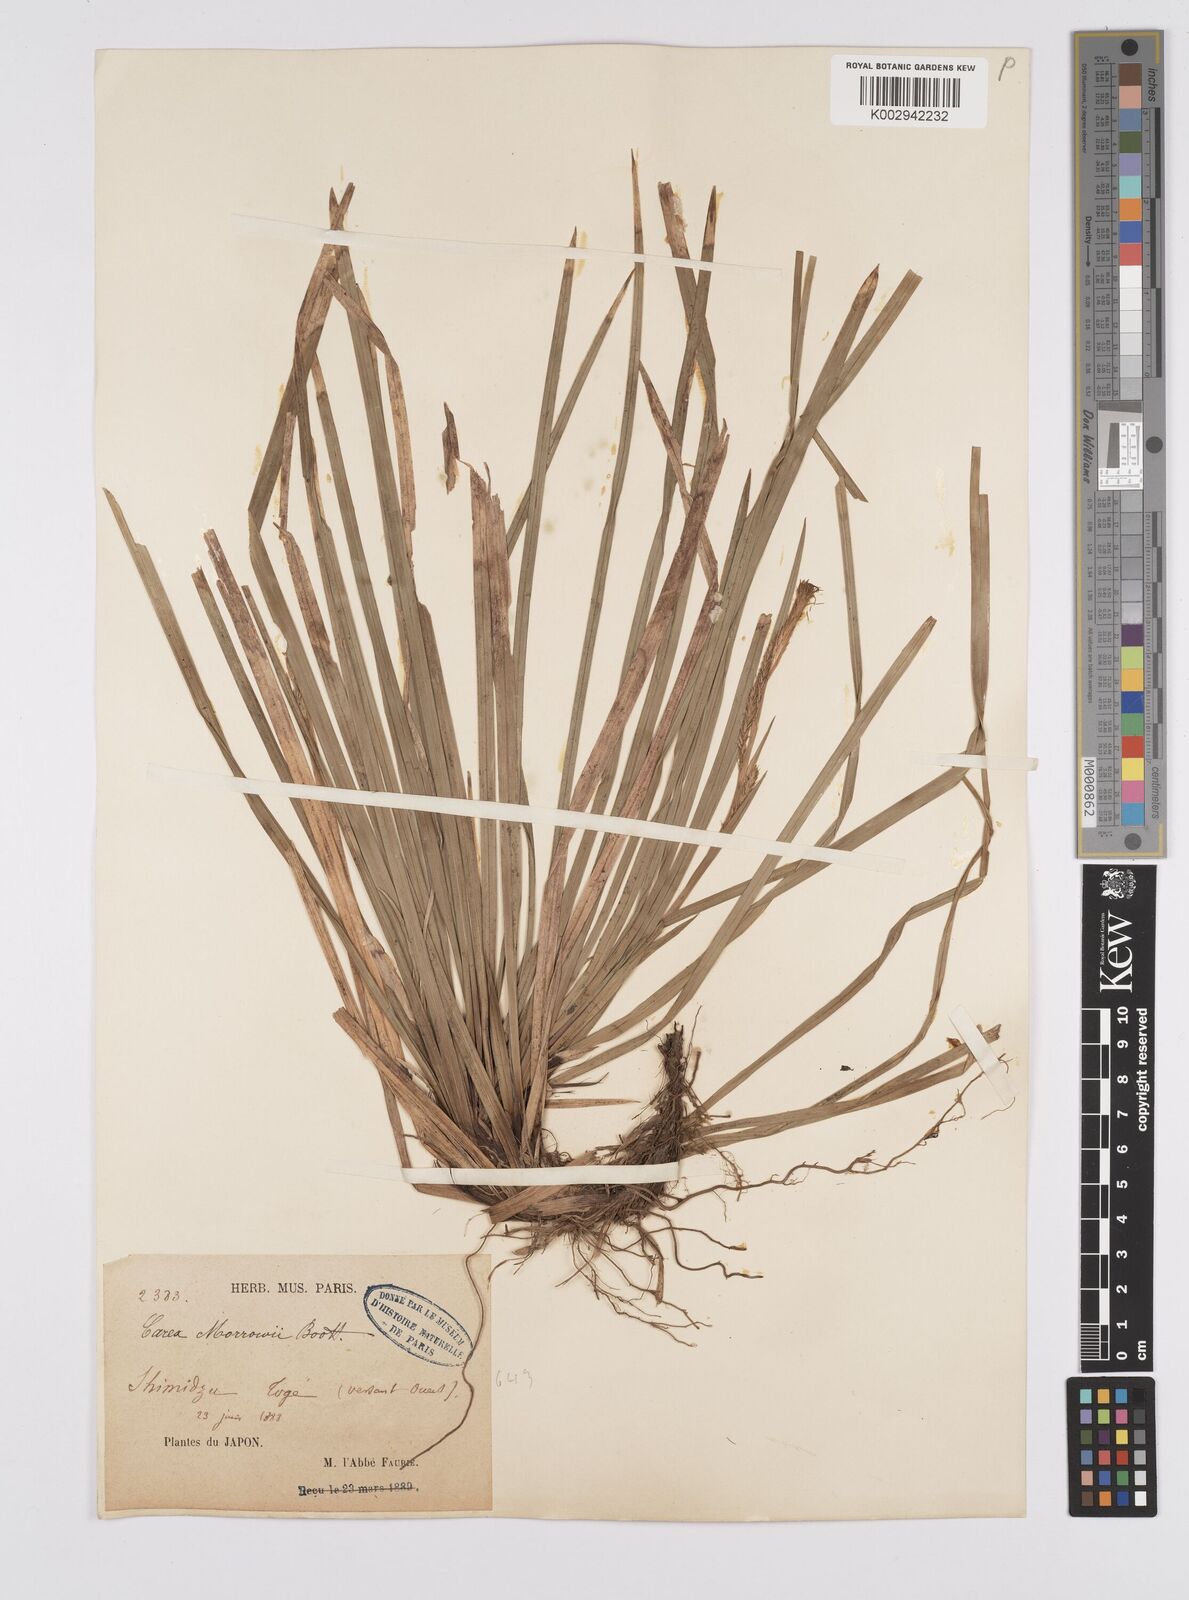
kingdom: Plantae
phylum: Tracheophyta
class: Liliopsida
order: Poales
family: Cyperaceae
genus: Carex
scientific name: Carex morrowii
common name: Japanese sedge
